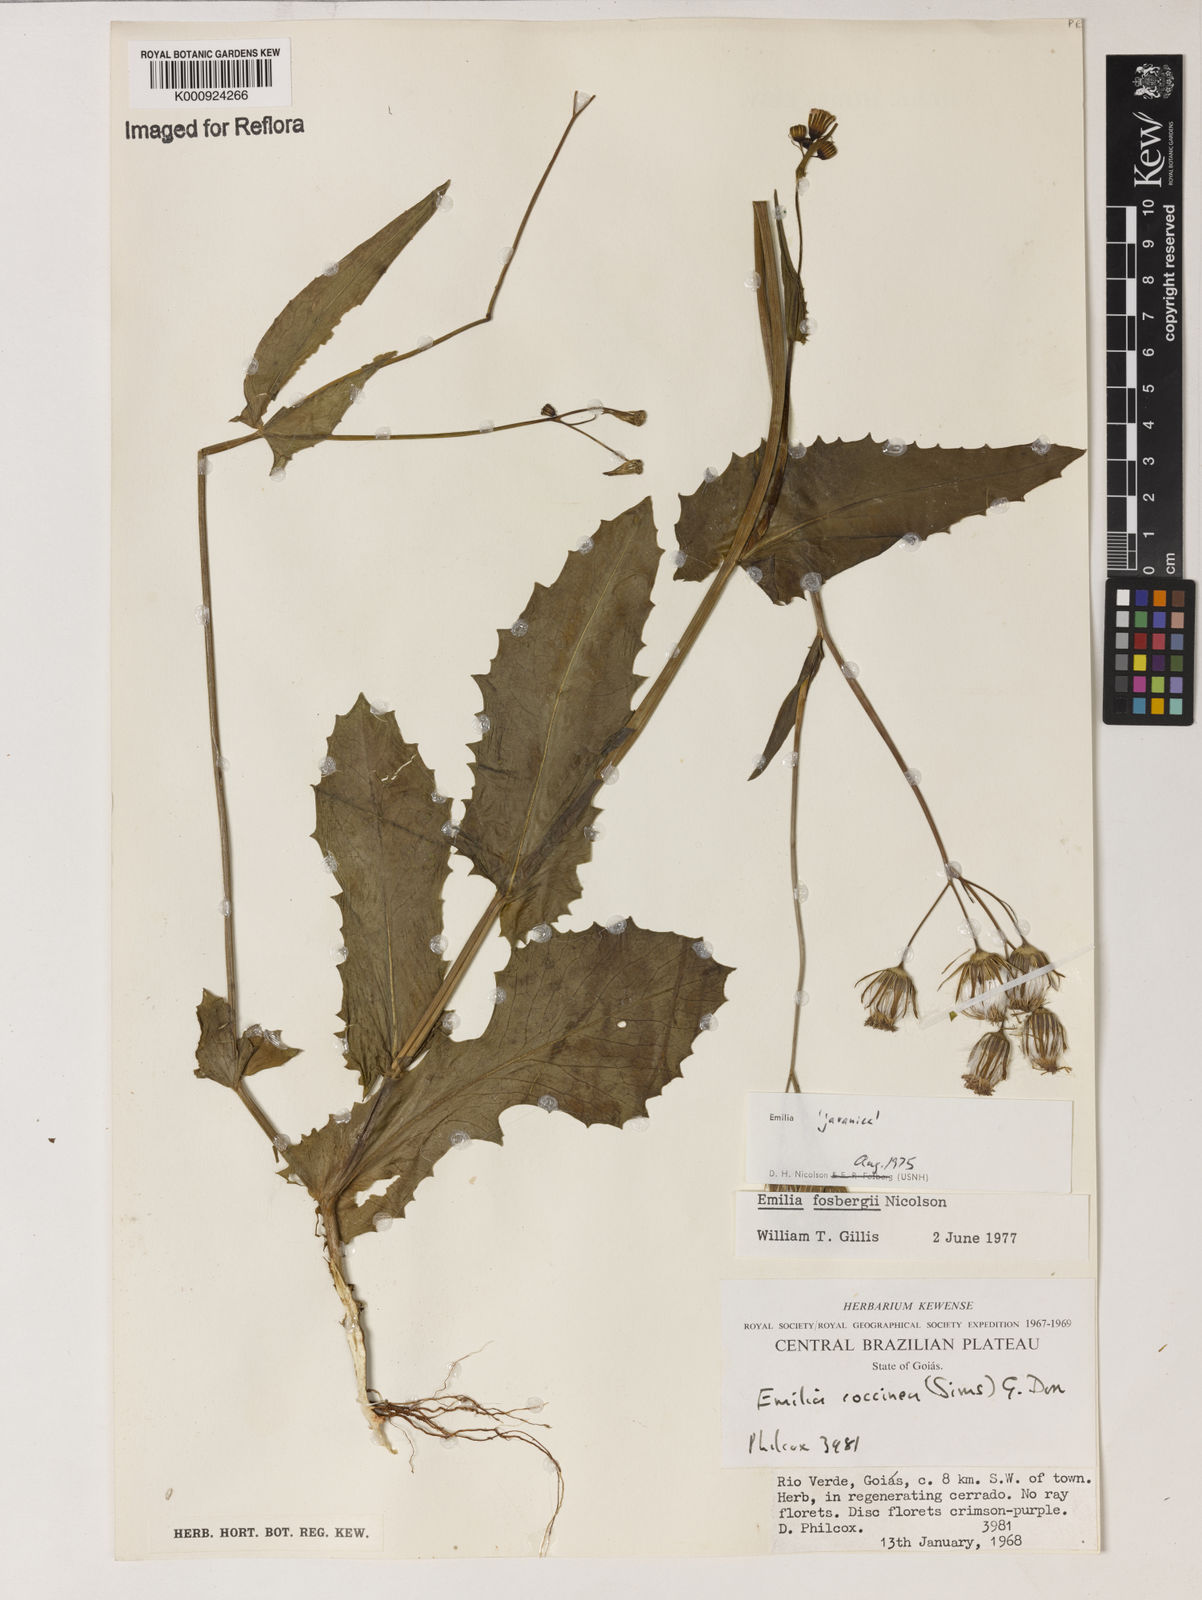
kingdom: Plantae
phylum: Tracheophyta
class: Magnoliopsida
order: Asterales
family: Asteraceae
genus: Emilia
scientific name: Emilia fosbergii
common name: Florida tasselflower
